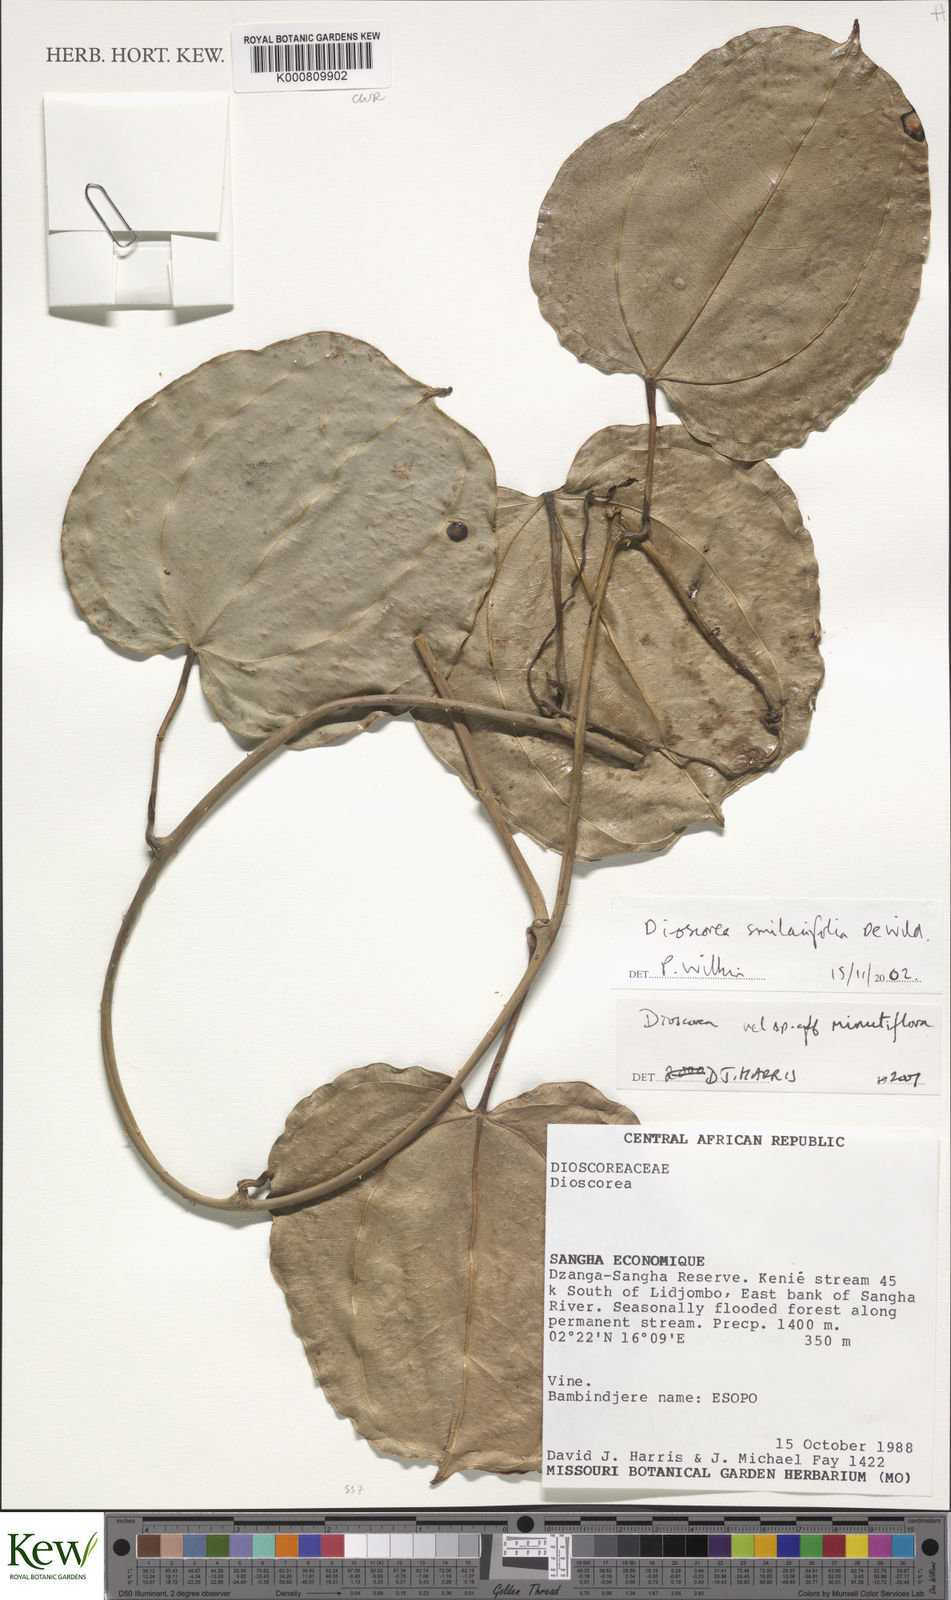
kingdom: Plantae
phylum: Tracheophyta
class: Liliopsida
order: Dioscoreales
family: Dioscoreaceae
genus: Dioscorea
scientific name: Dioscorea smilacifolia
